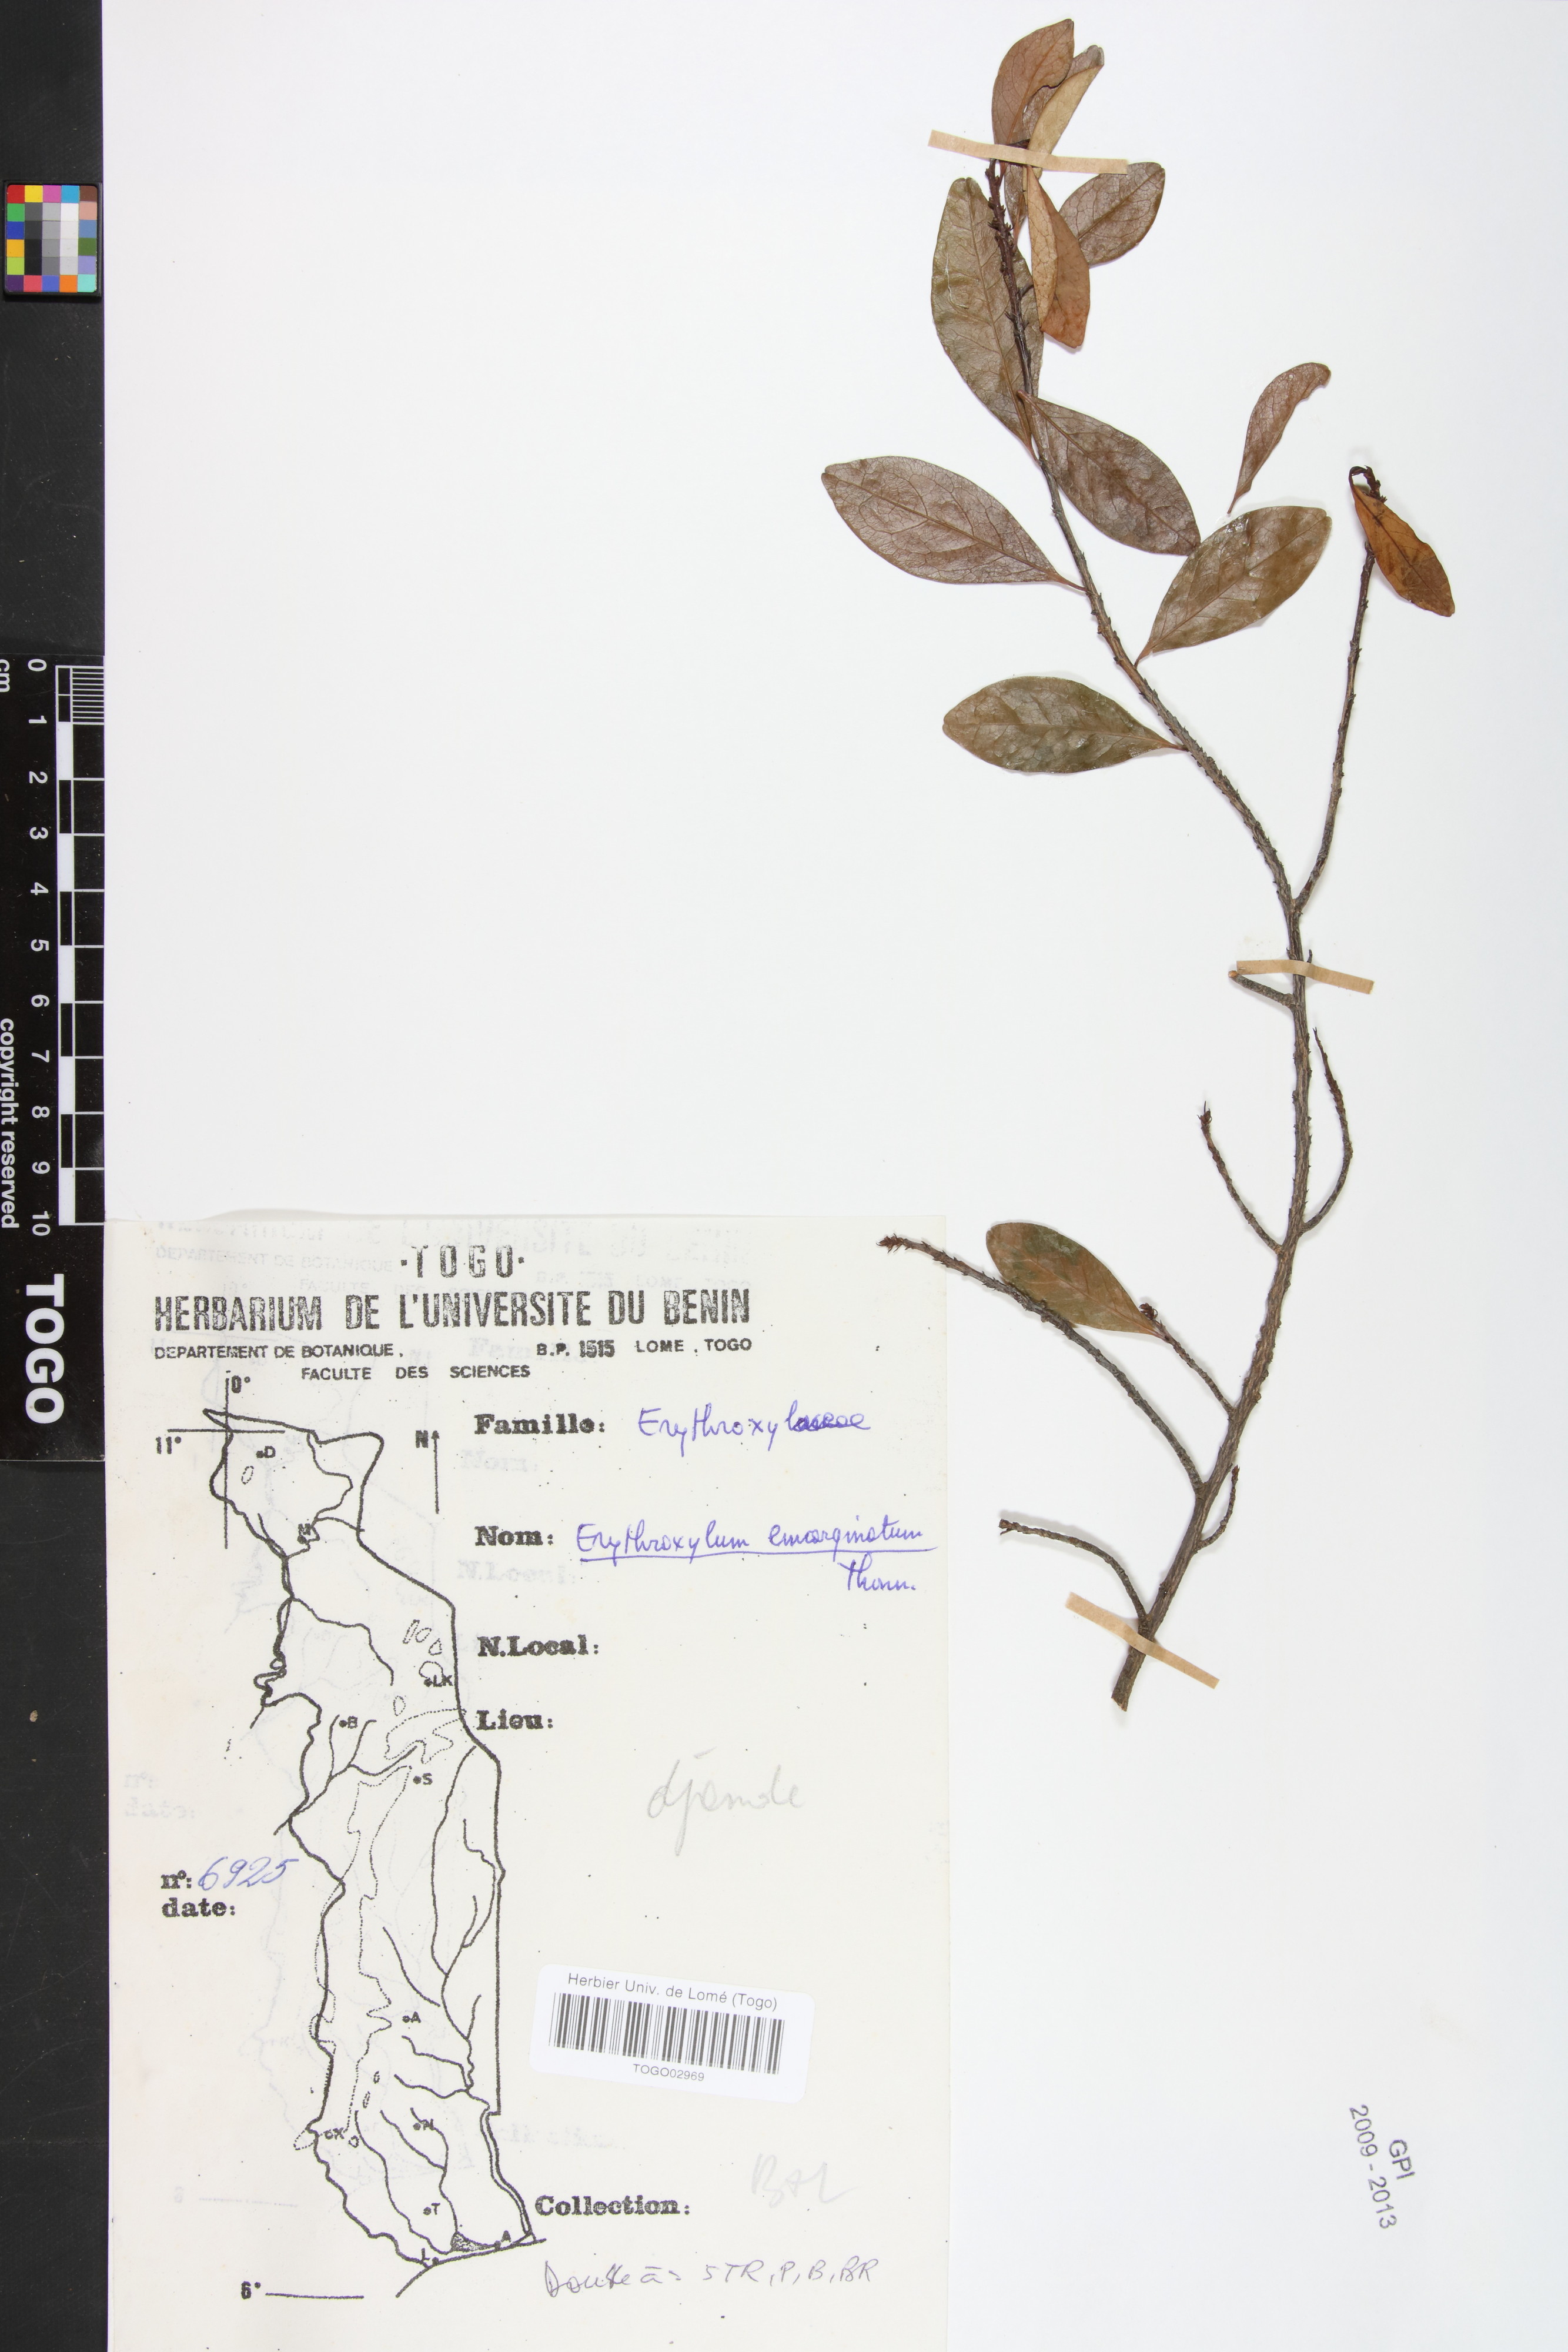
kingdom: Plantae
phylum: Tracheophyta
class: Magnoliopsida
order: Malpighiales
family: Erythroxylaceae
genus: Erythroxylum
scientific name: Erythroxylum emarginatum
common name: African coca-tree
